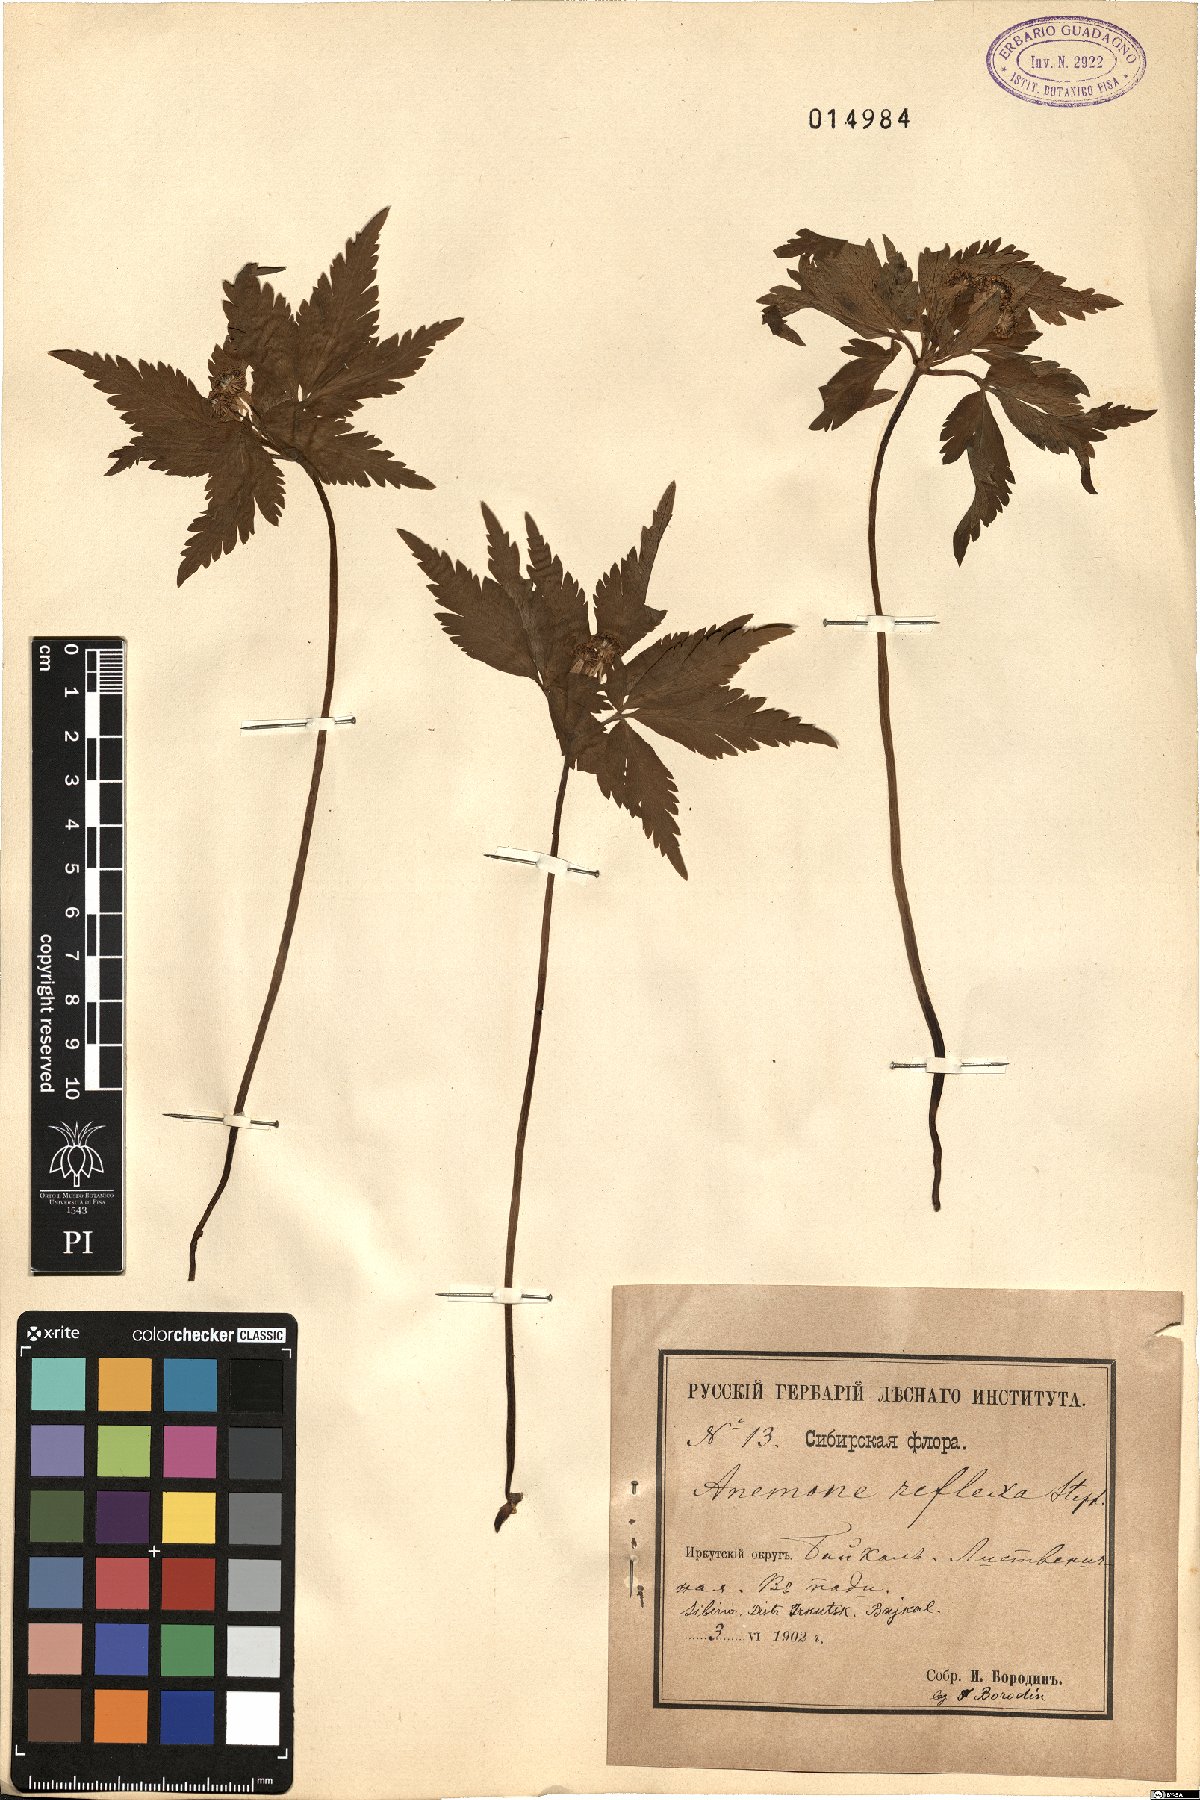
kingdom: Plantae
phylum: Tracheophyta
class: Magnoliopsida
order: Ranunculales
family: Ranunculaceae
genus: Anemone
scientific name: Anemone reflexa
